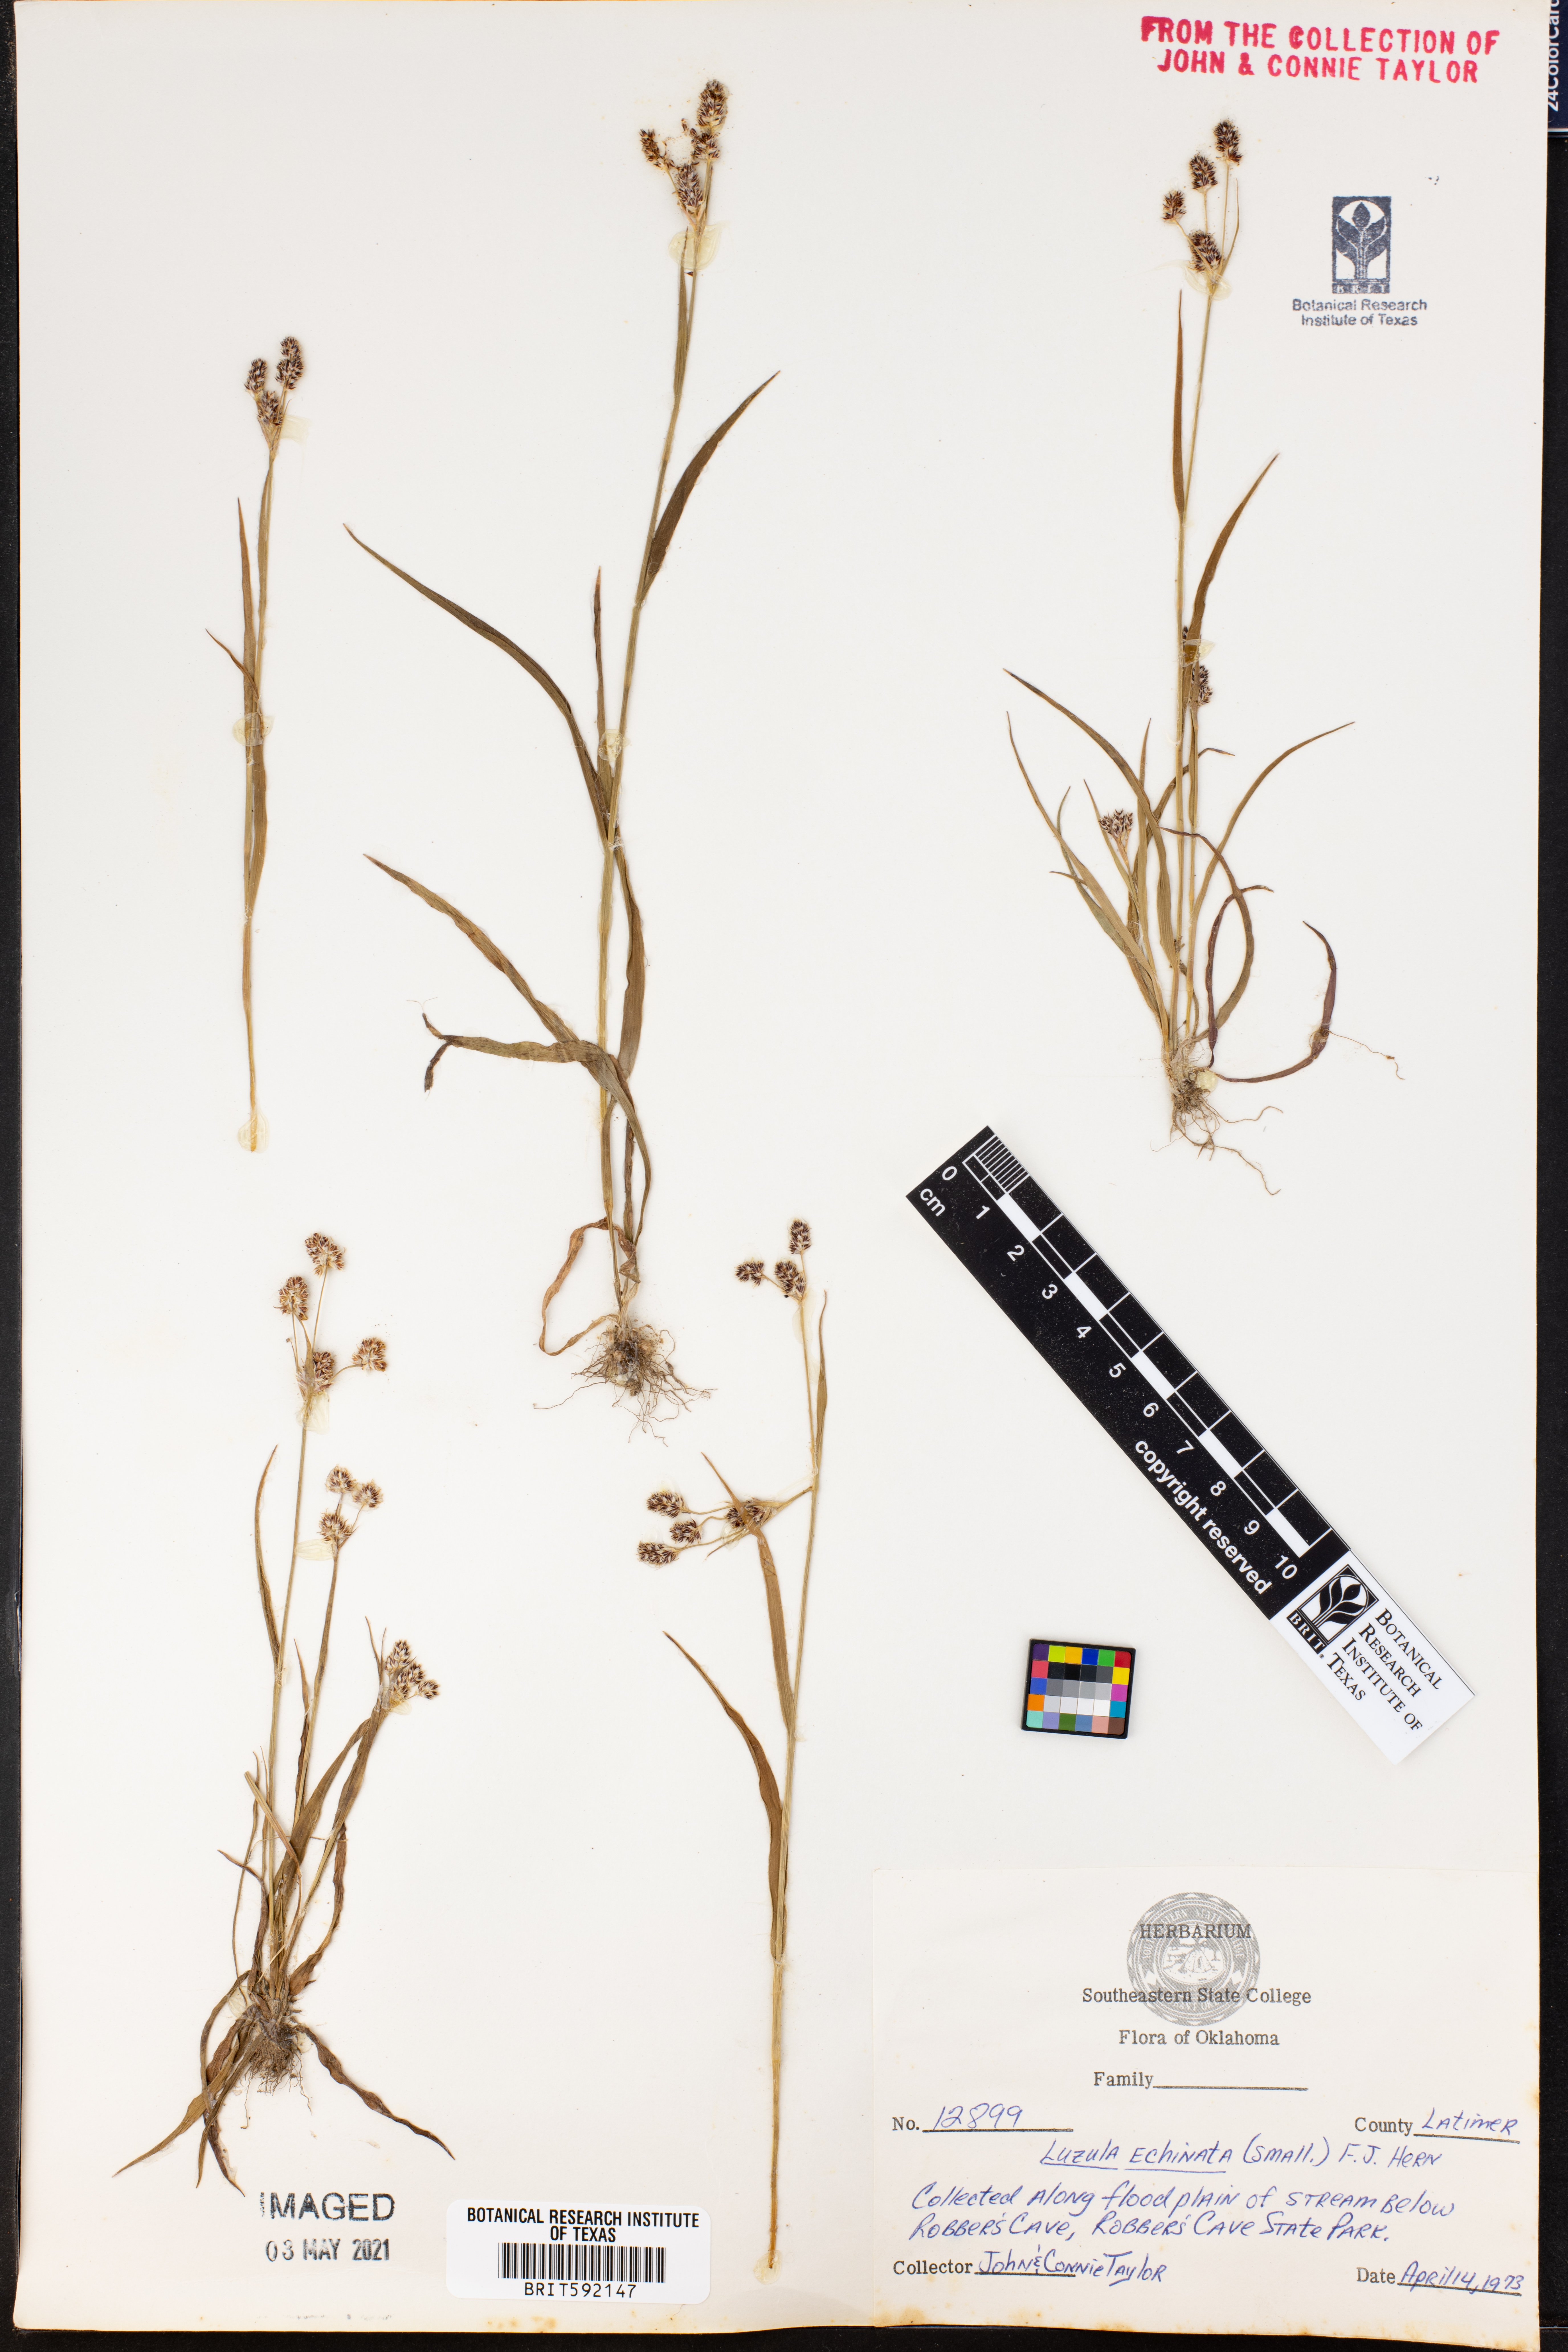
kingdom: Plantae
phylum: Tracheophyta
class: Liliopsida
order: Poales
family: Juncaceae
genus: Luzula
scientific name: Luzula echinata
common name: Hedgehog woodrush
